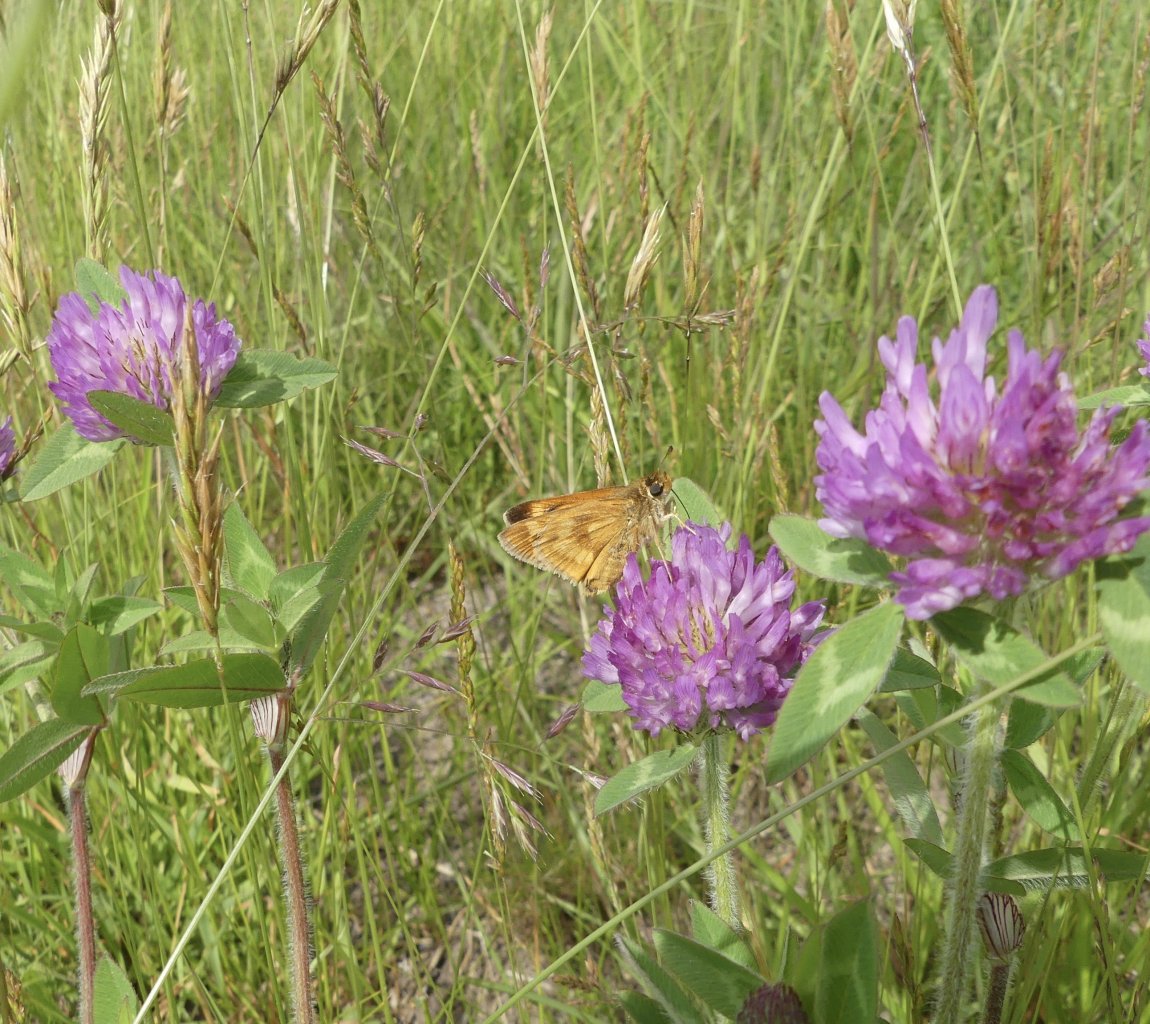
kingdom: Animalia
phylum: Arthropoda
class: Insecta
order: Lepidoptera
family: Hesperiidae
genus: Polites
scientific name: Polites
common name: Long Dash Skipper
